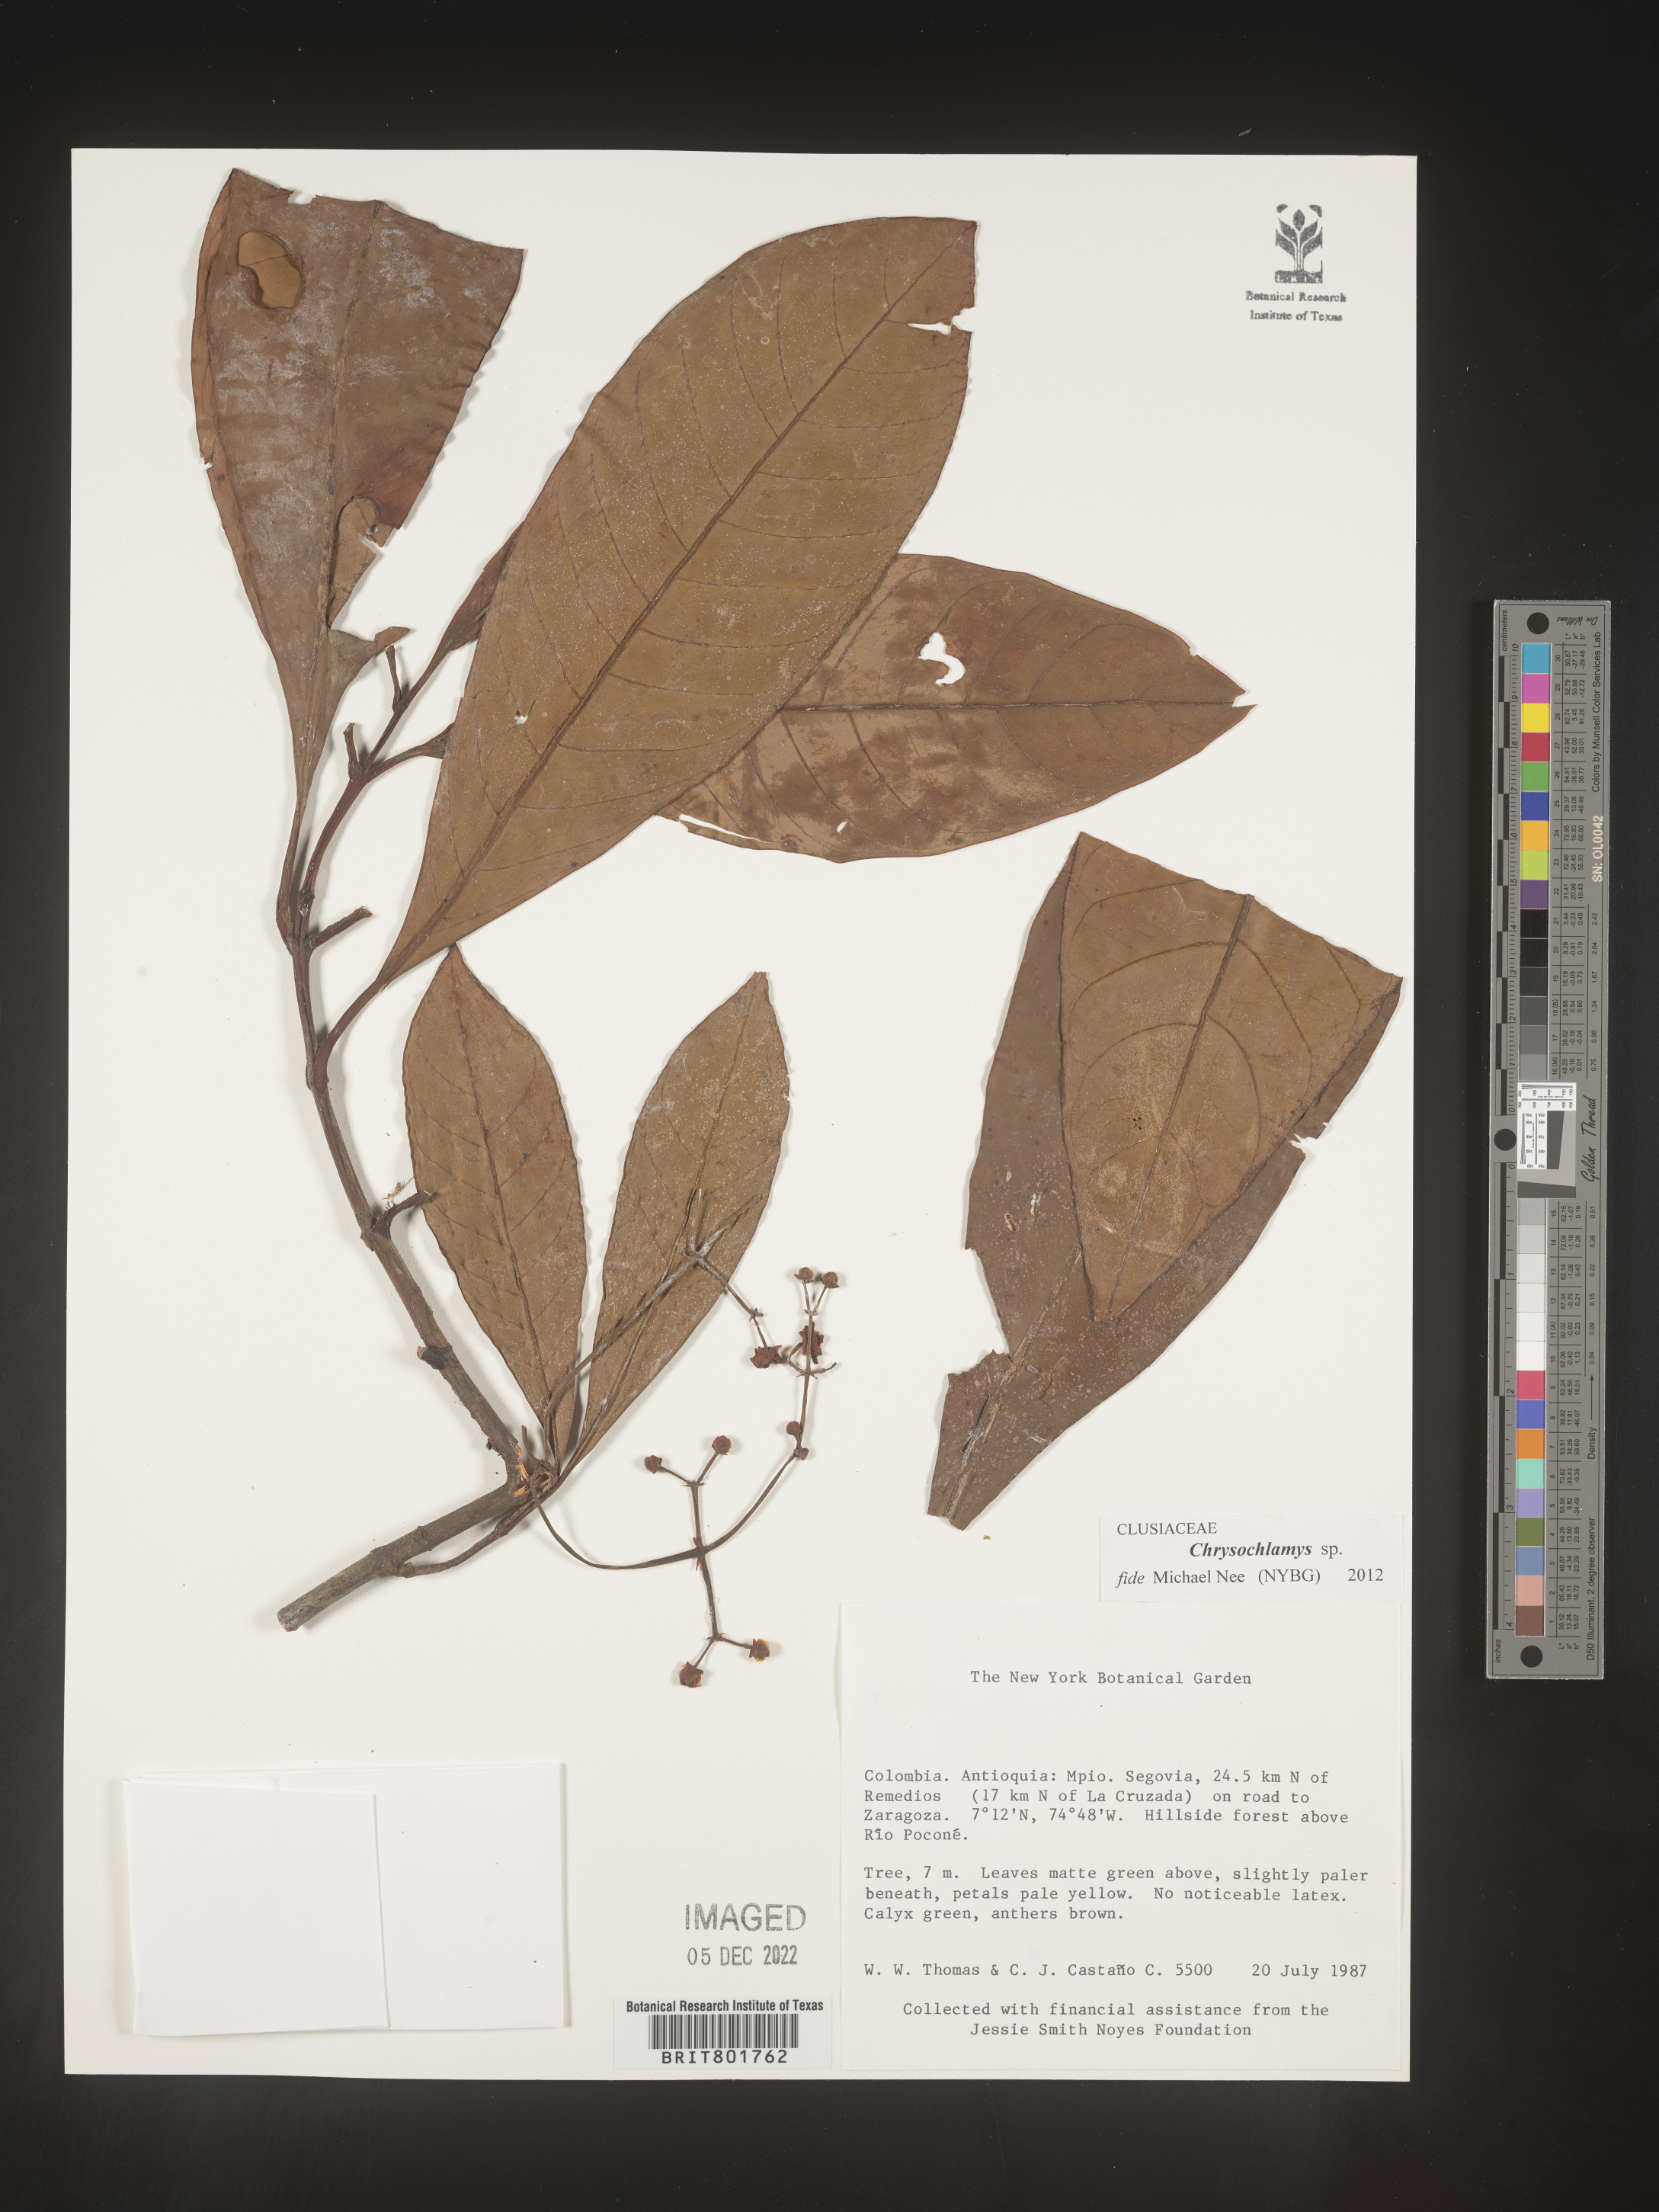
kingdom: Plantae
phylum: Tracheophyta
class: Magnoliopsida
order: Malpighiales
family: Clusiaceae
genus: Chrysochlamys
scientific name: Chrysochlamys
